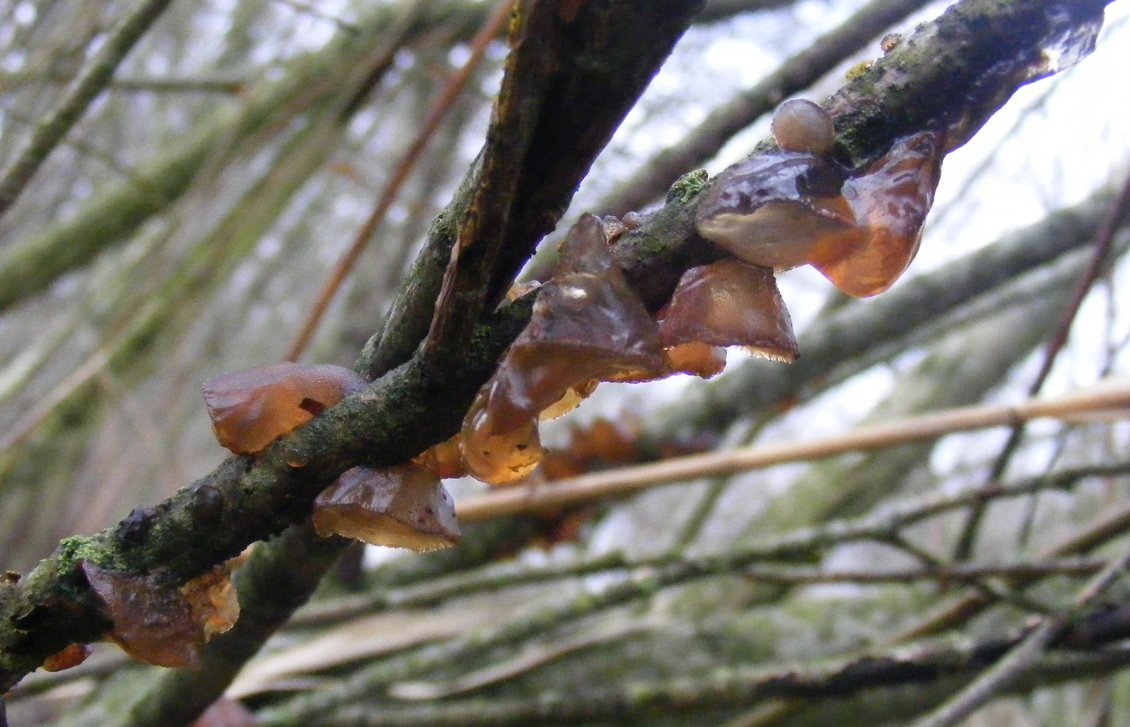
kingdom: Fungi
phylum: Basidiomycota
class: Agaricomycetes
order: Auriculariales
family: Auriculariaceae
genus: Exidia
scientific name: Exidia recisa
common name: pile-bævretop
